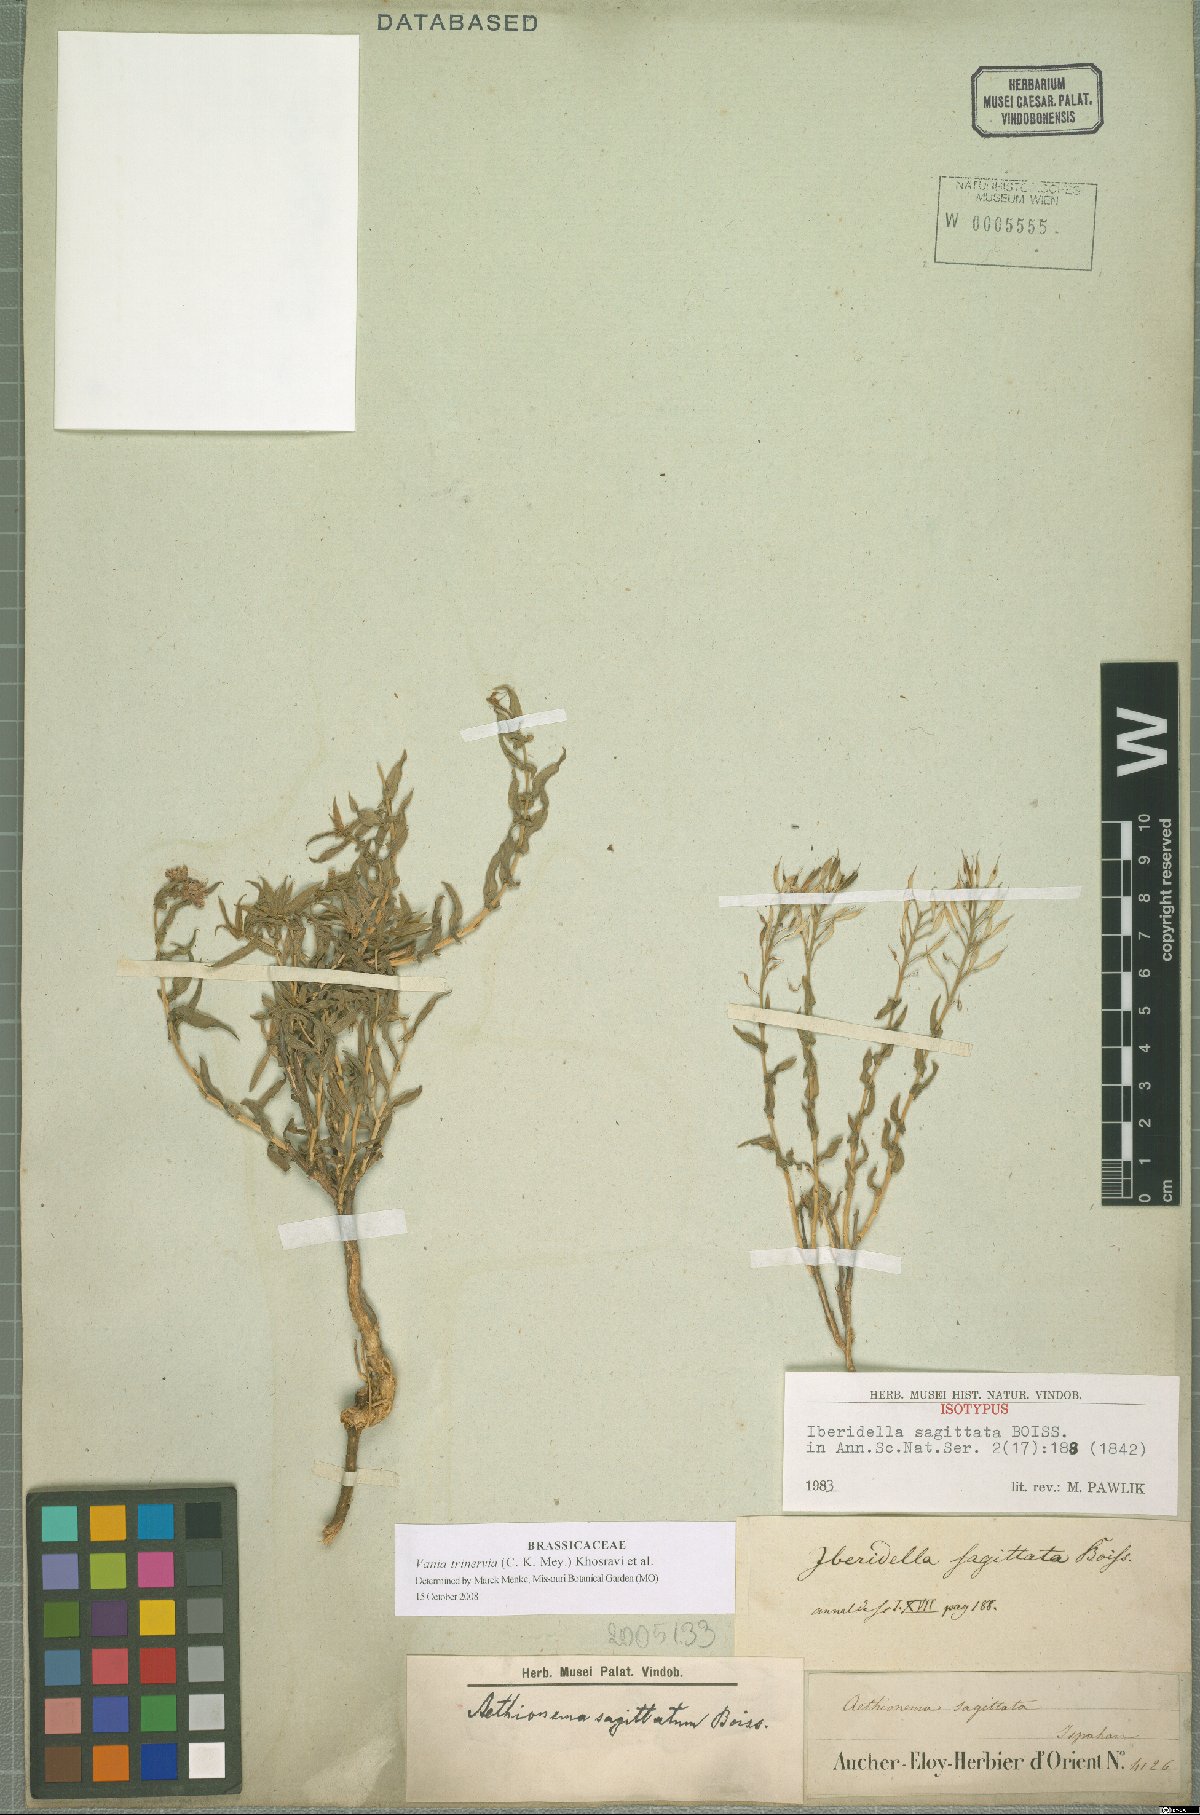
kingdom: Plantae
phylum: Tracheophyta
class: Magnoliopsida
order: Brassicales
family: Brassicaceae
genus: Noccaea
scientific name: Noccaea trinervia
